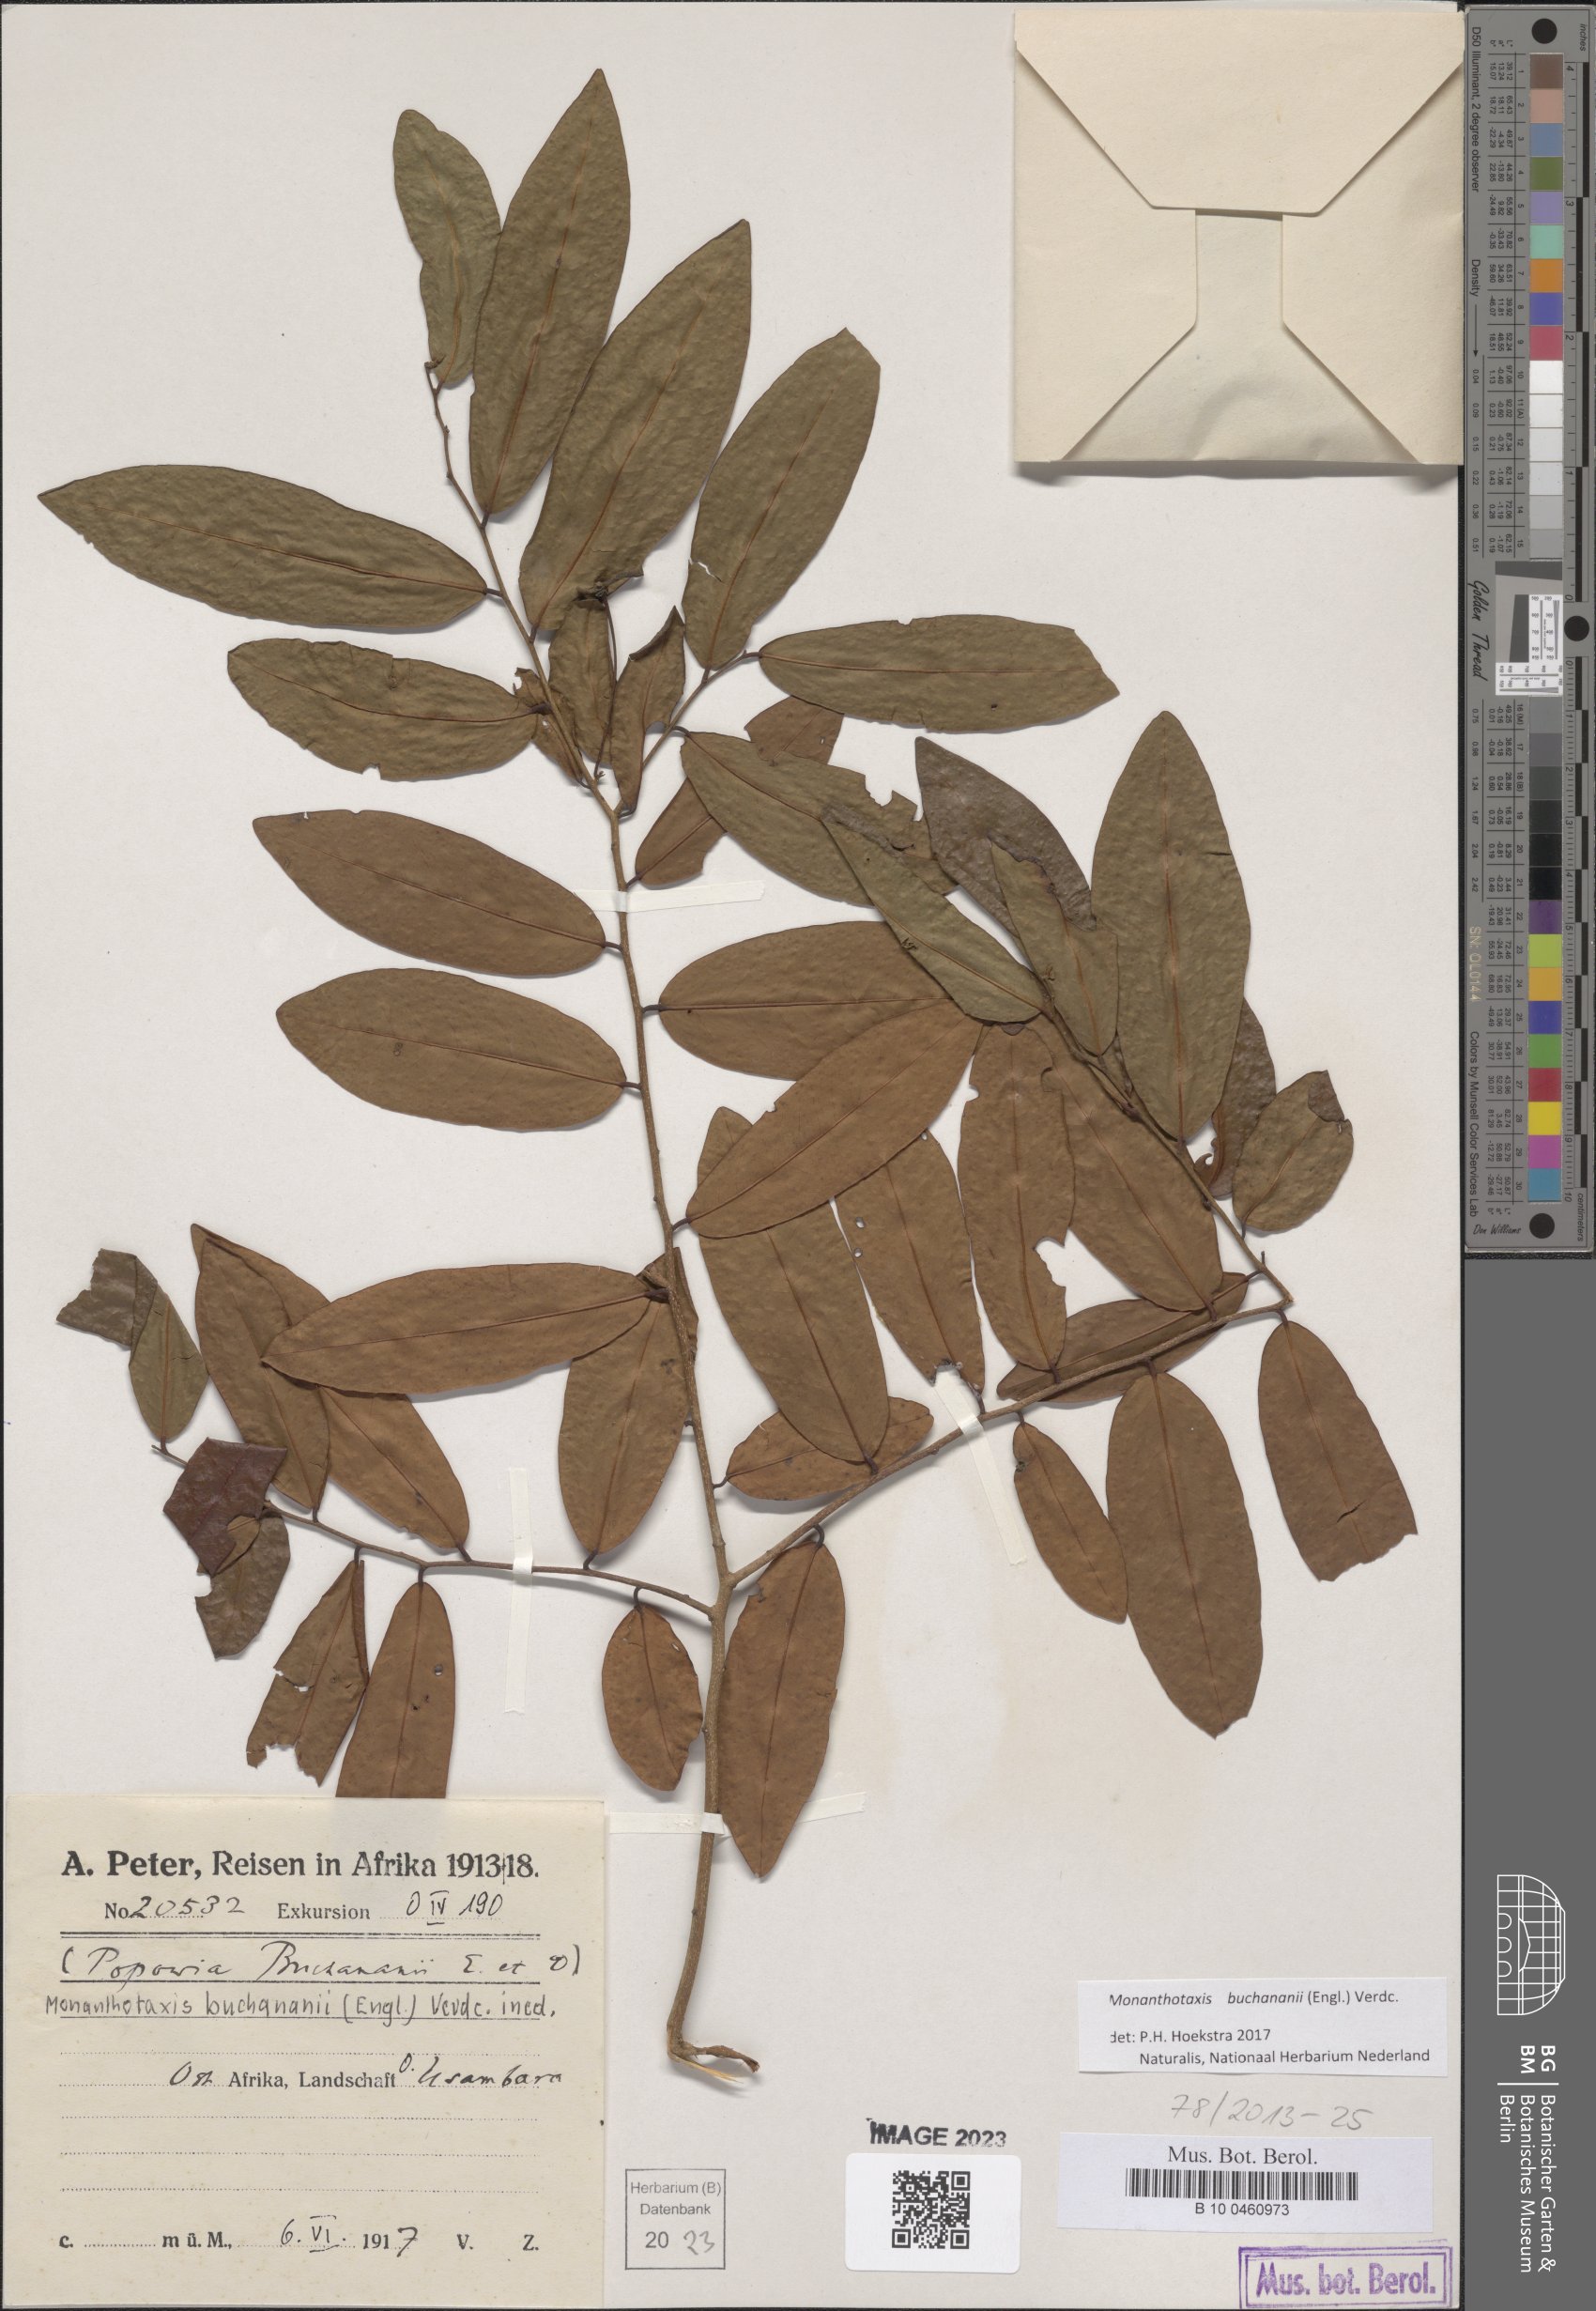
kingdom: Plantae
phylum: Tracheophyta
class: Magnoliopsida
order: Magnoliales
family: Annonaceae
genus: Monanthotaxis
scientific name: Monanthotaxis buchananii
